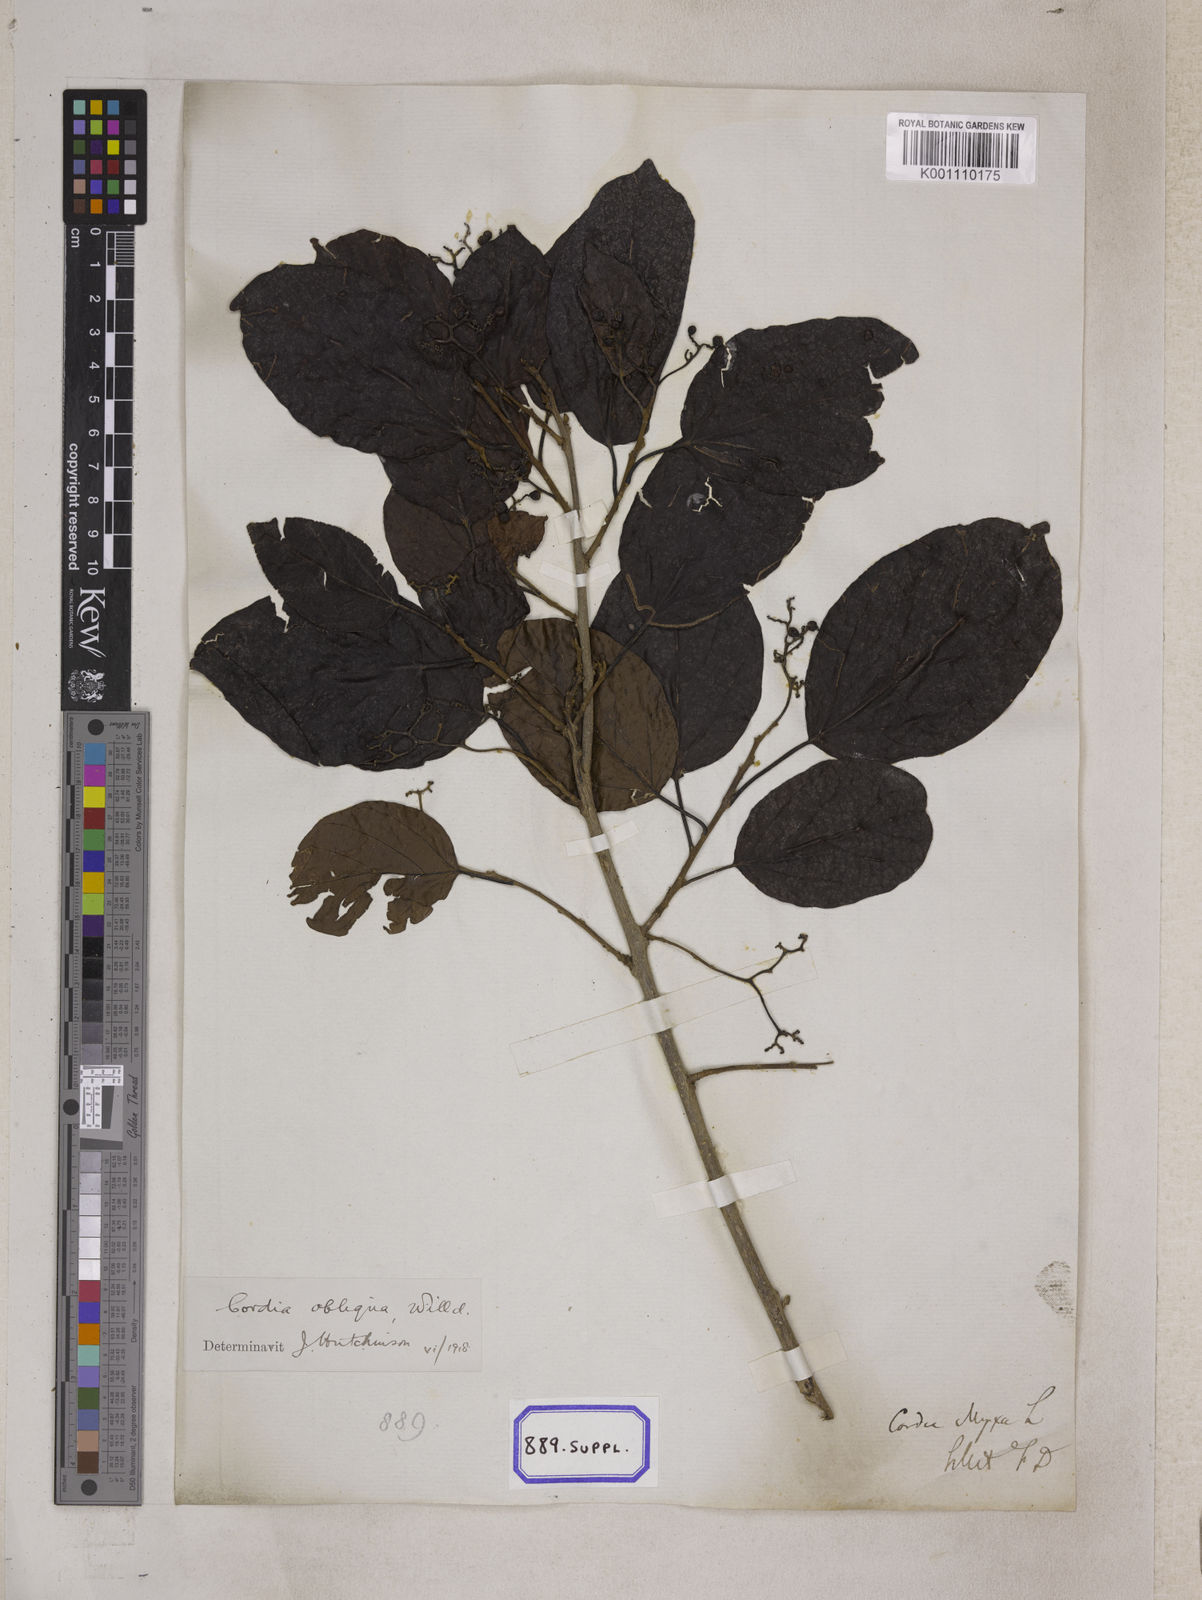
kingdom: Plantae
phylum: Tracheophyta
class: Magnoliopsida
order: Boraginales
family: Cordiaceae
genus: Cordia
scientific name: Cordia myxa
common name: Assyrian plum
